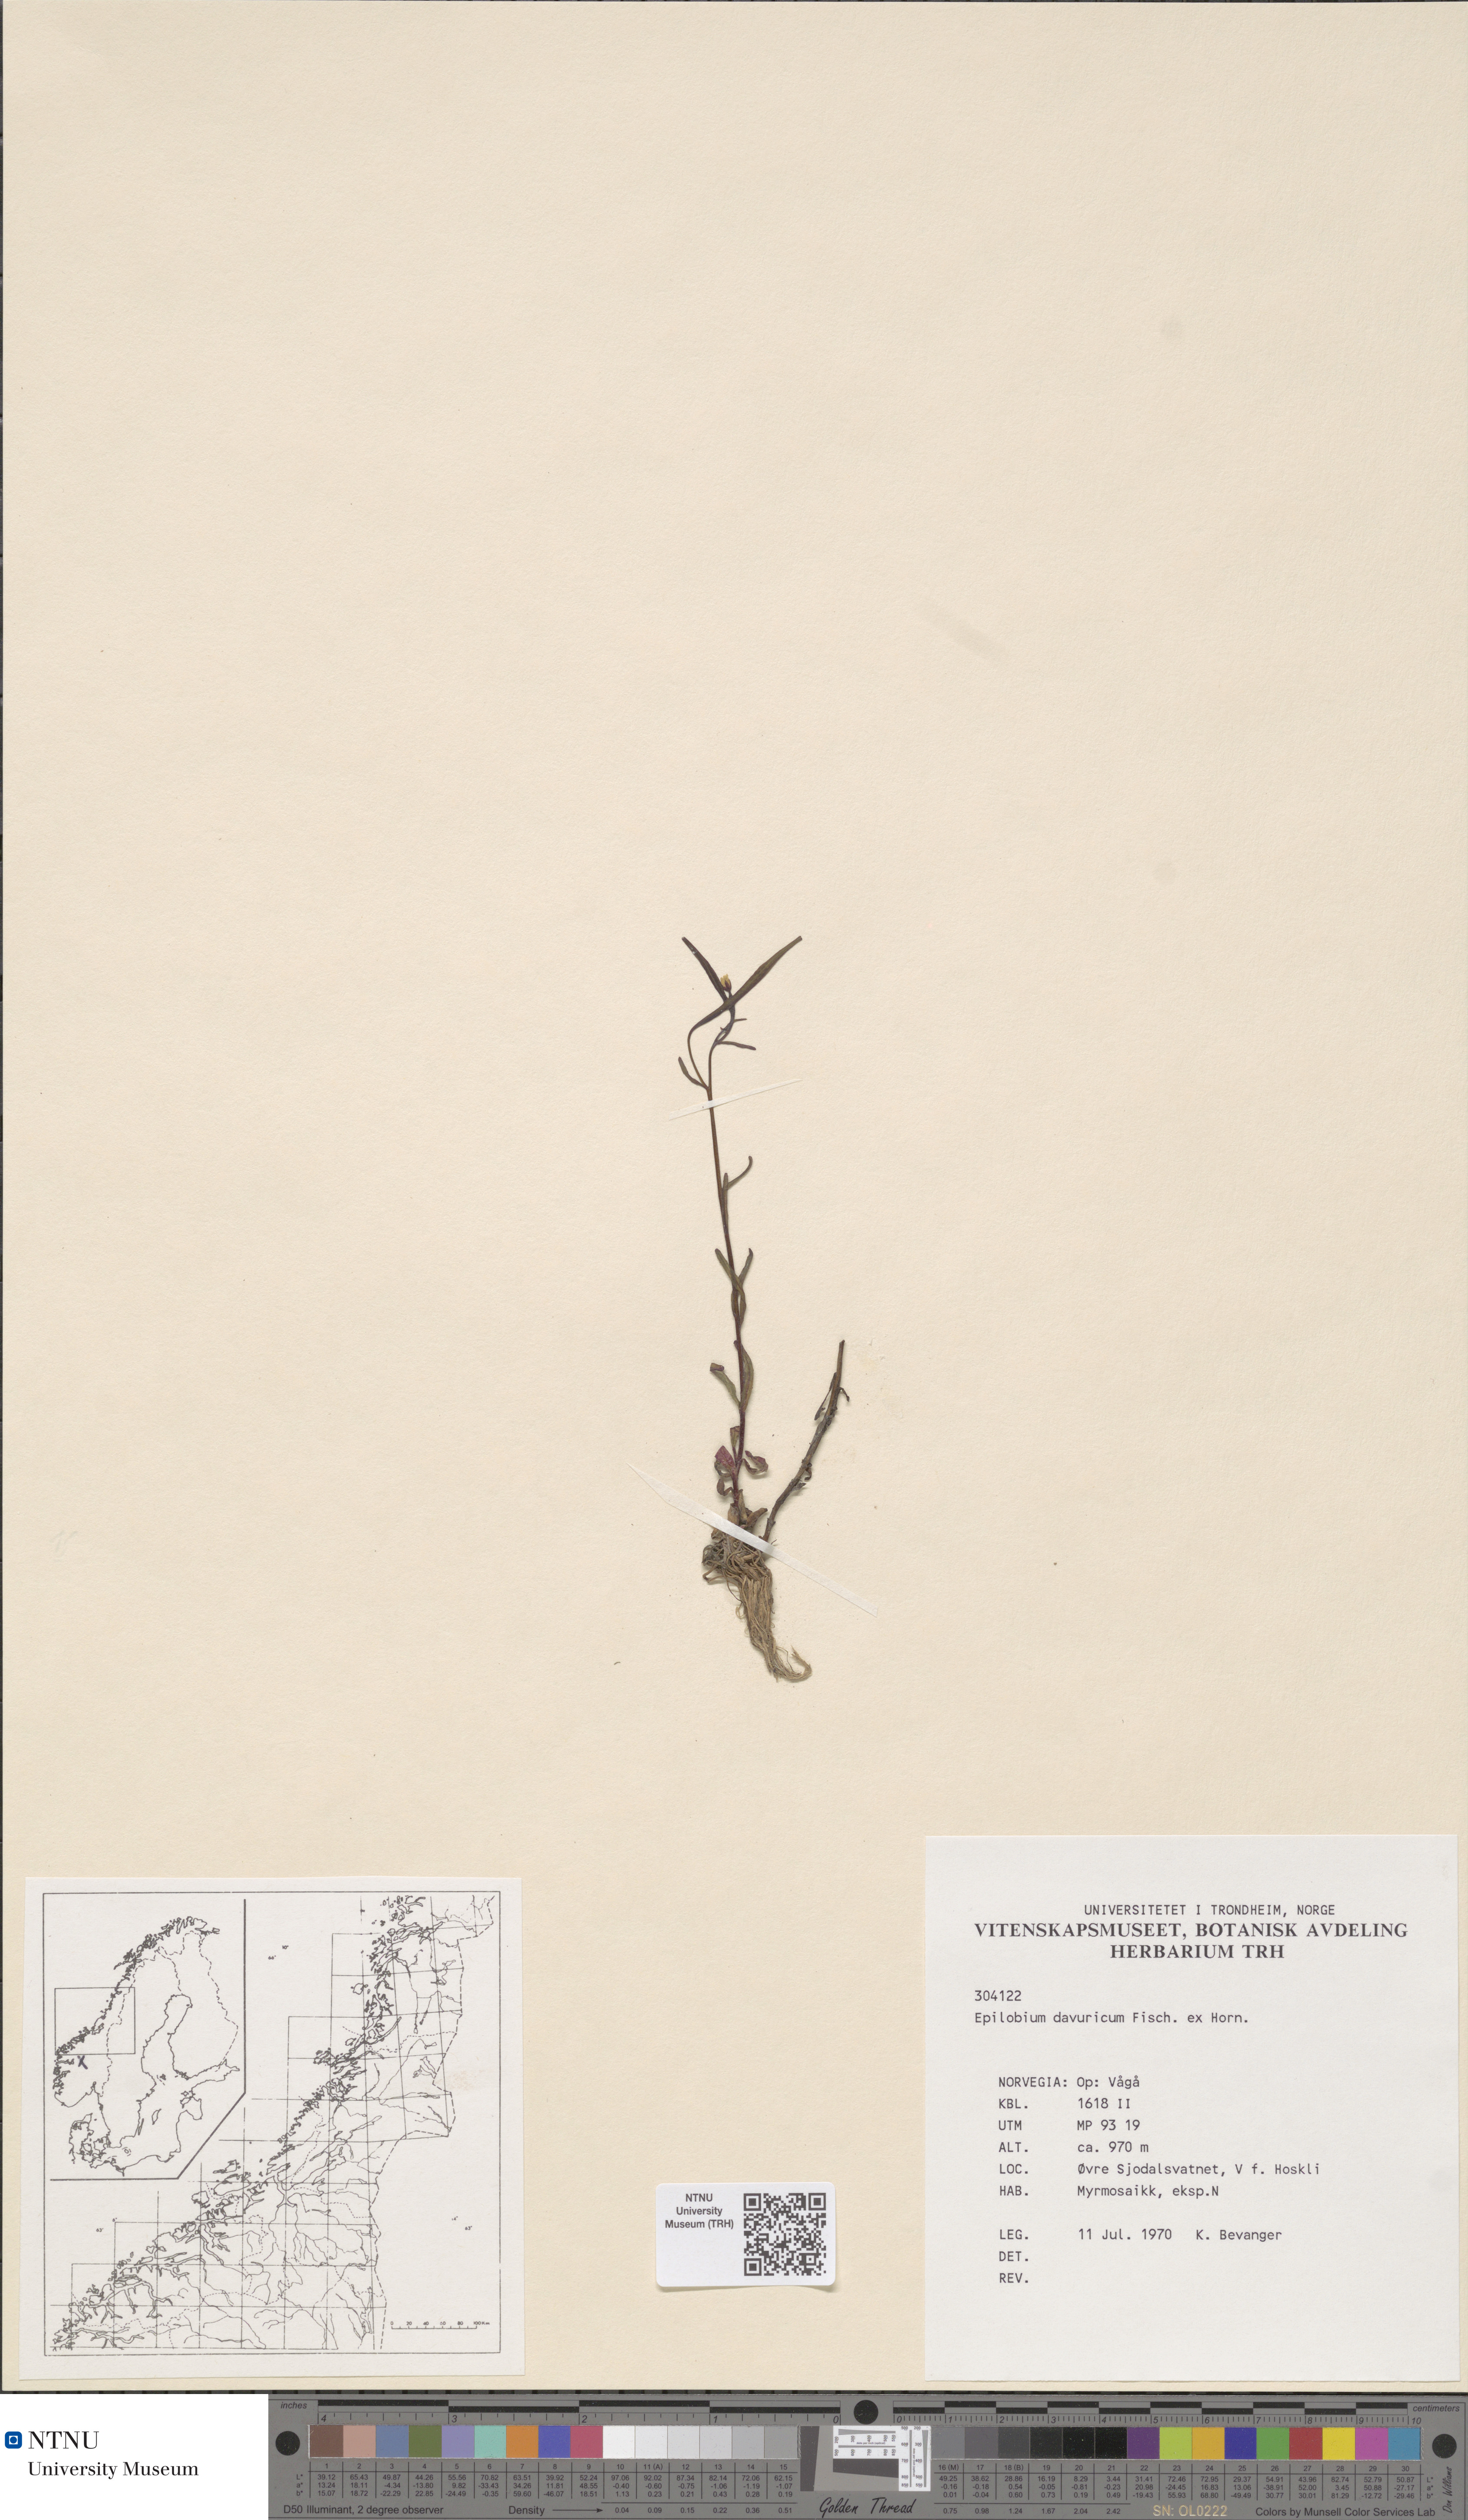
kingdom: Plantae
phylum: Tracheophyta
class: Magnoliopsida
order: Myrtales
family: Onagraceae
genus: Epilobium
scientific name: Epilobium davuricum
